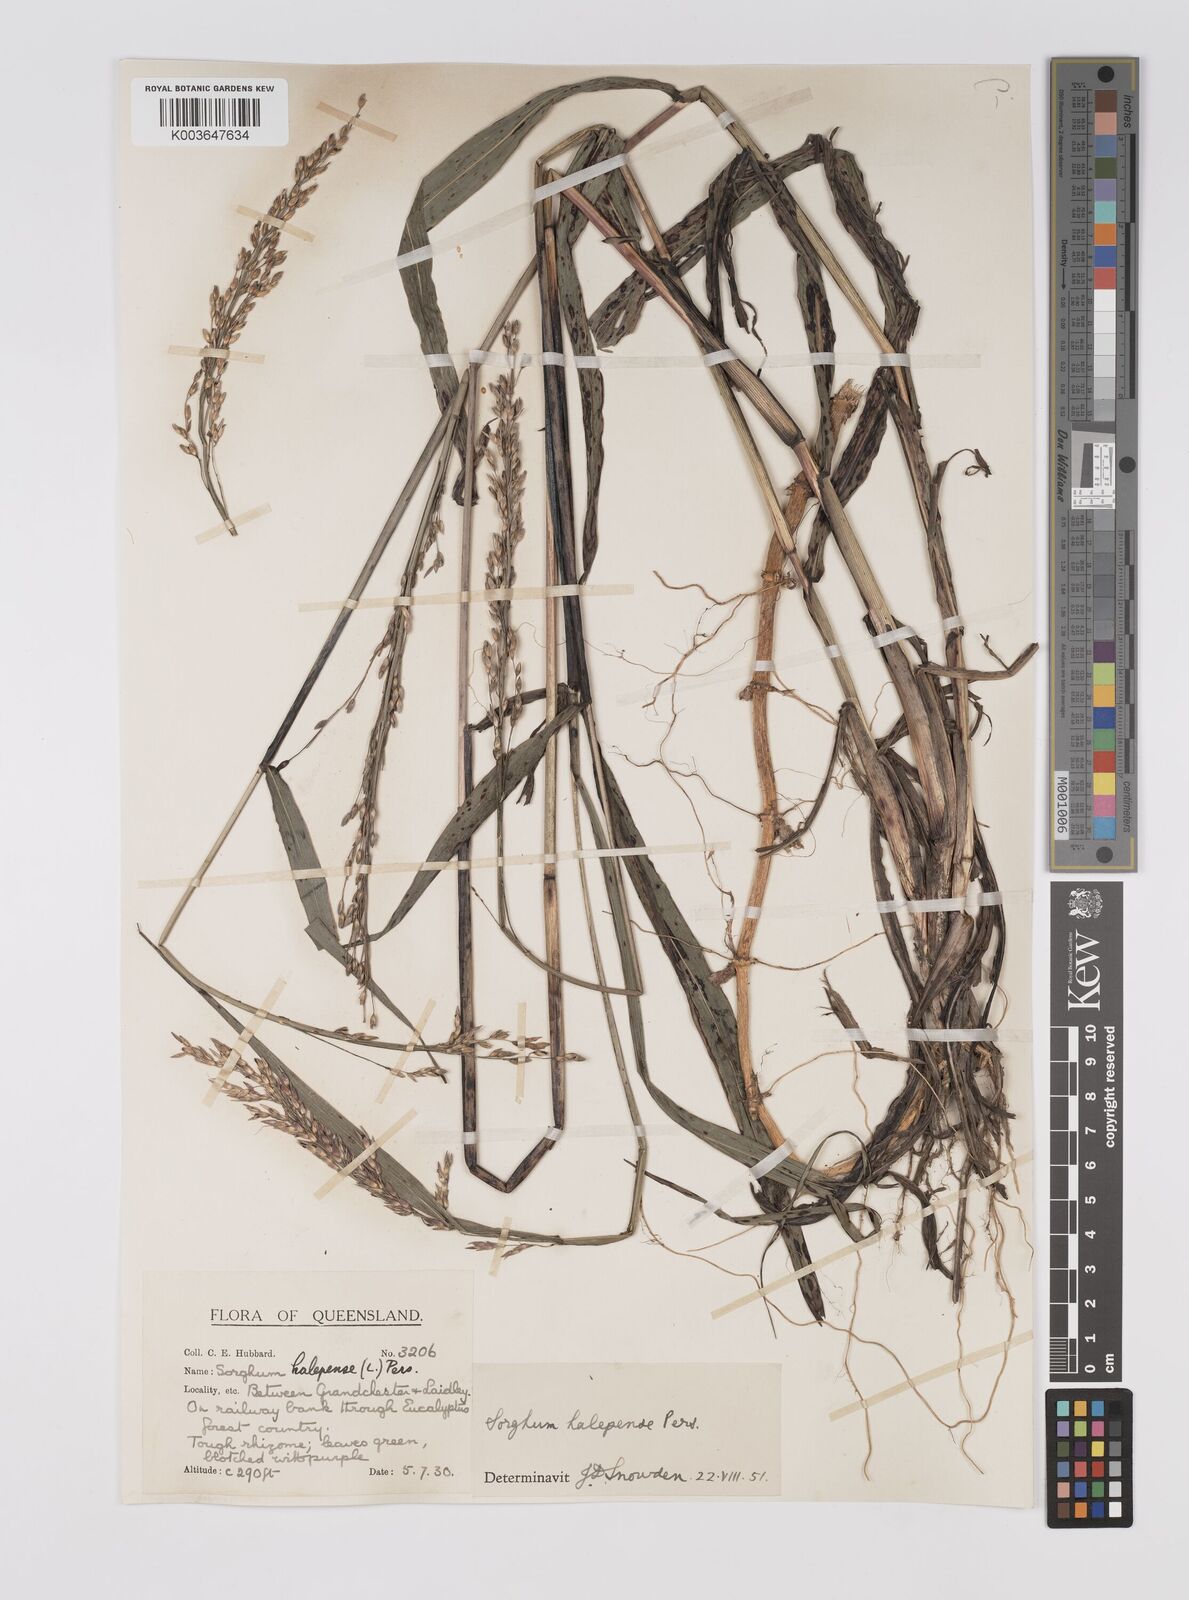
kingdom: Plantae
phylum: Tracheophyta
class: Liliopsida
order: Poales
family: Poaceae
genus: Sorghum
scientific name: Sorghum halepense
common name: Johnson-grass
